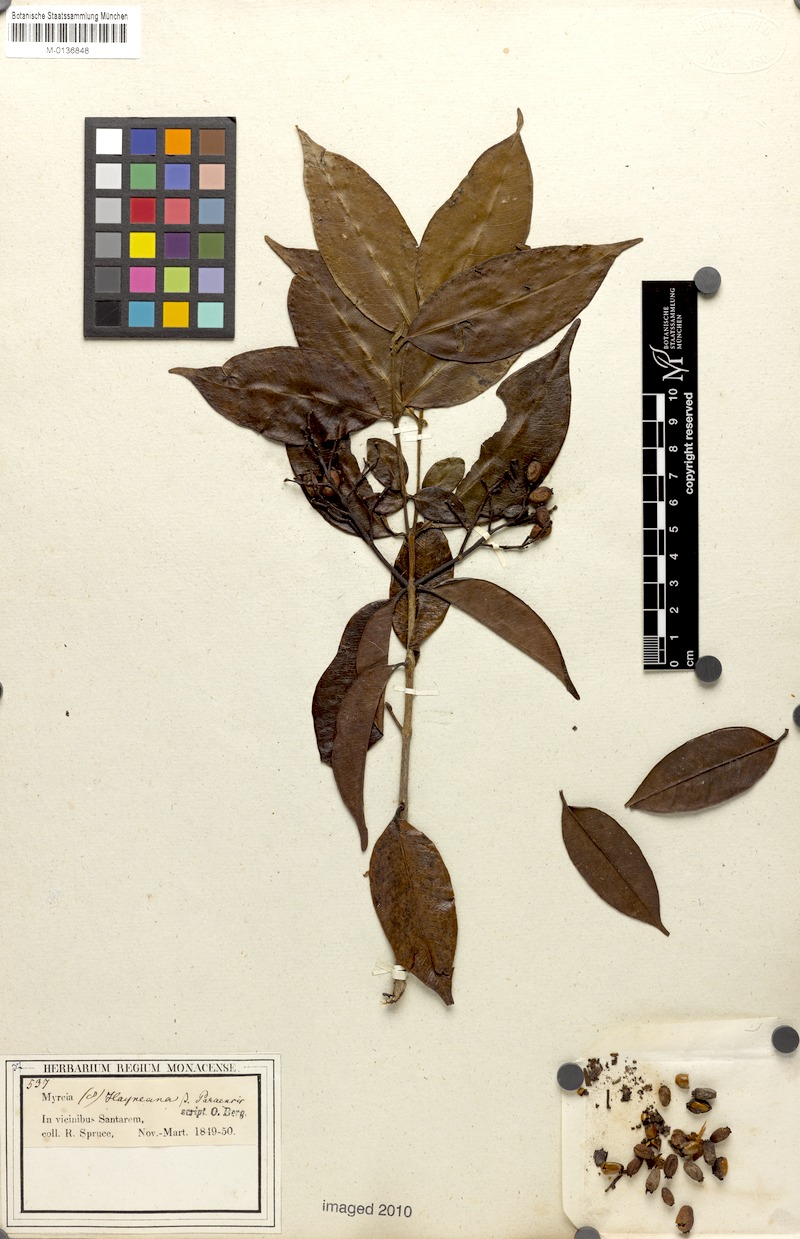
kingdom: Plantae
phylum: Tracheophyta
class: Magnoliopsida
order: Myrtales
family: Myrtaceae
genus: Myrcia
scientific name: Myrcia splendens
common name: Surinam cherry
